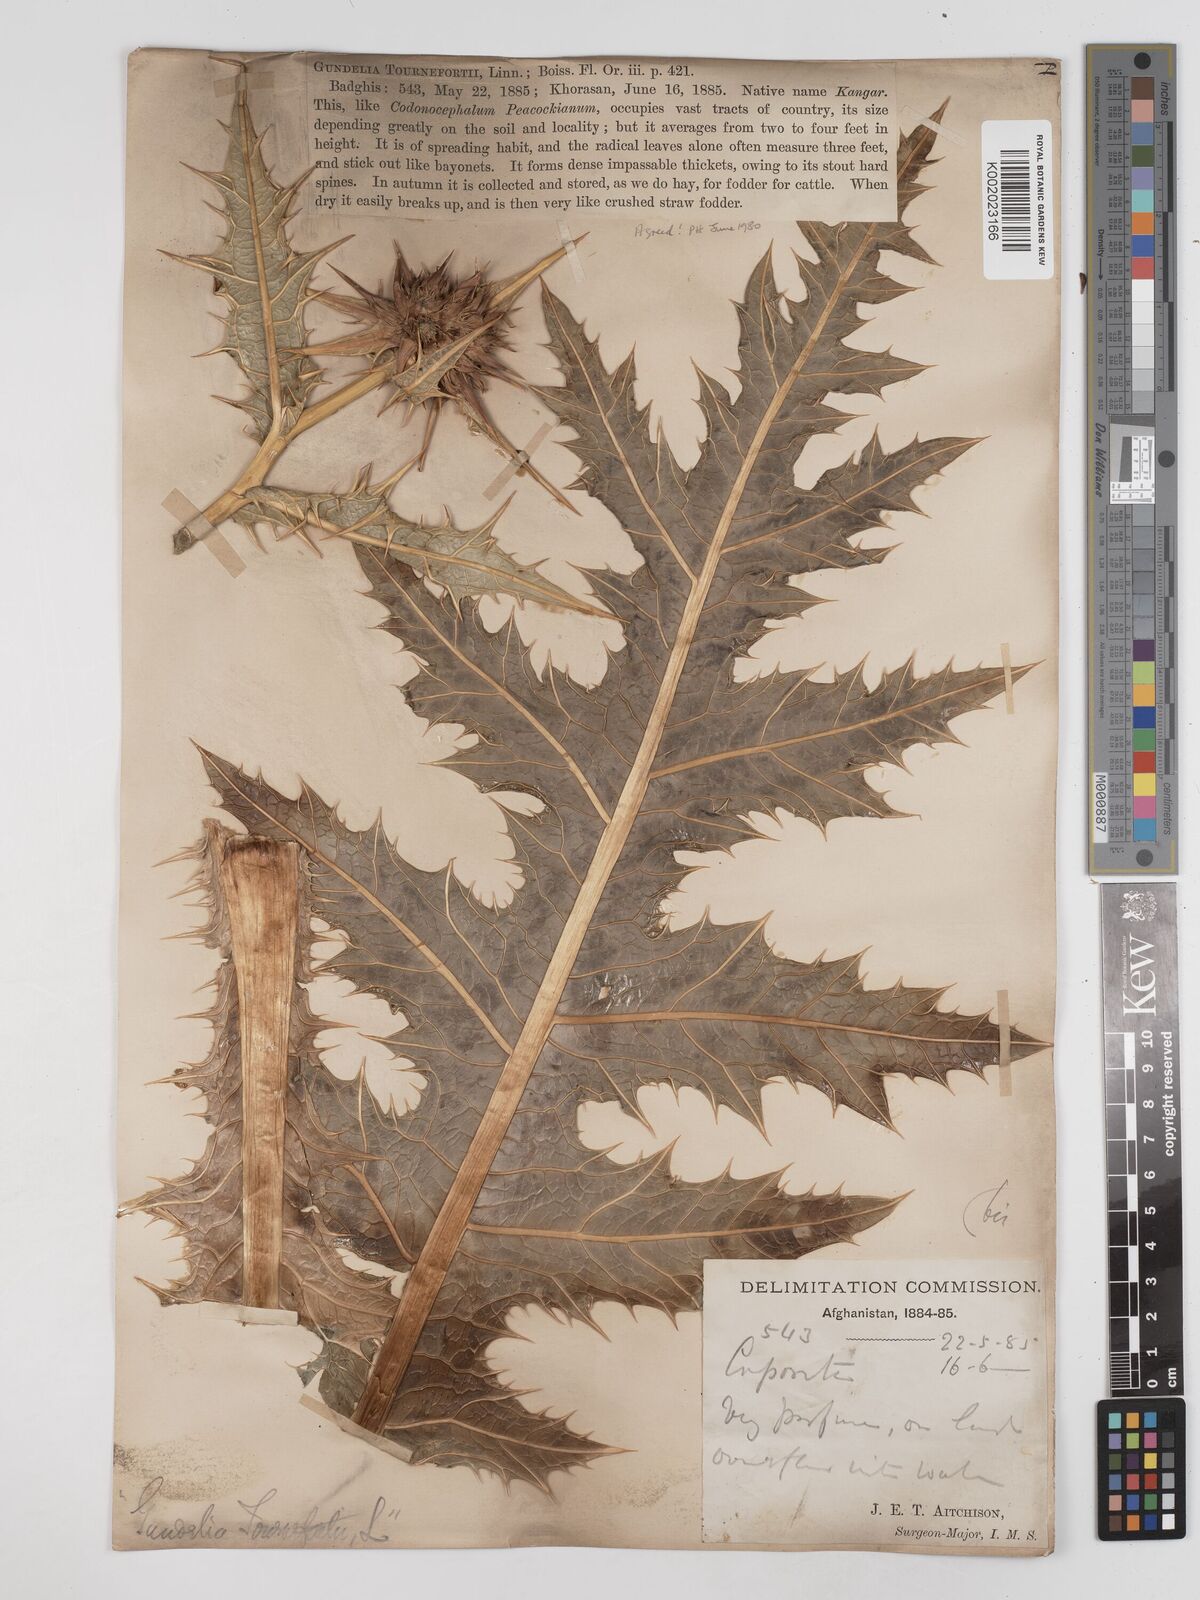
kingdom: Plantae
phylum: Tracheophyta
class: Magnoliopsida
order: Asterales
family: Asteraceae
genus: Gundelia
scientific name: Gundelia tournefortii
